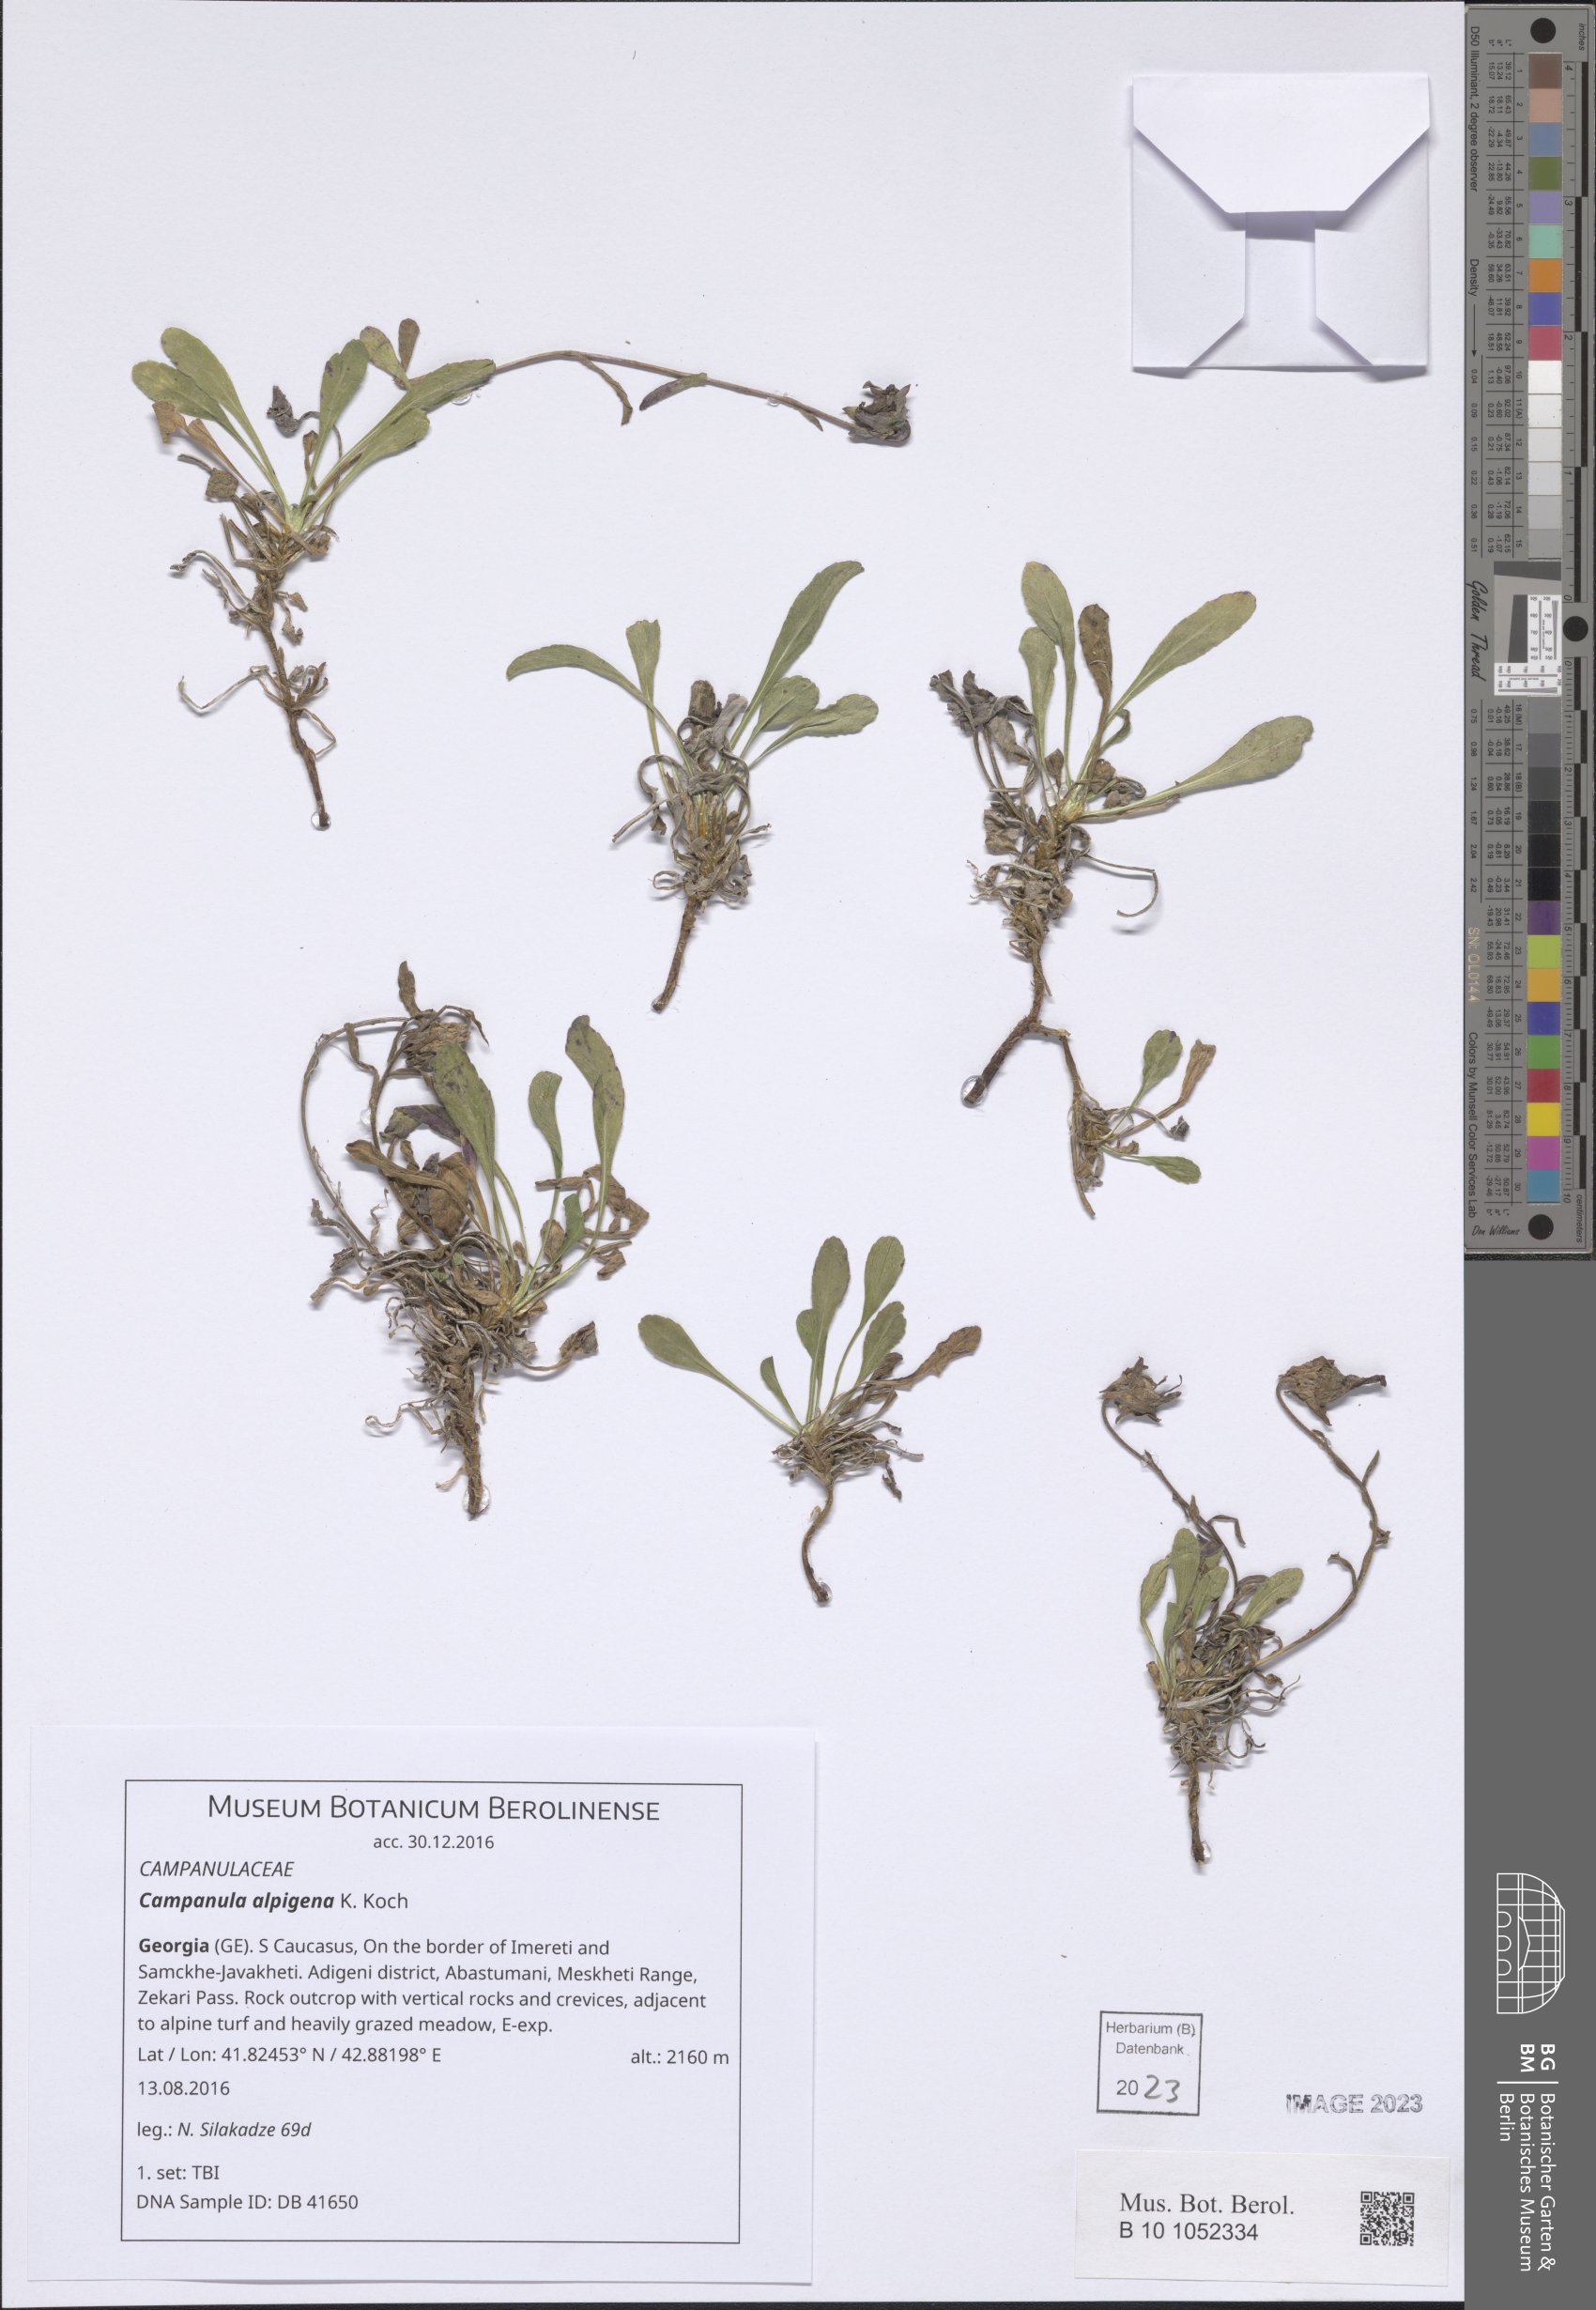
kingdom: Plantae
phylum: Tracheophyta
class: Magnoliopsida
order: Asterales
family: Campanulaceae
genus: Campanula
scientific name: Campanula saxifraga
